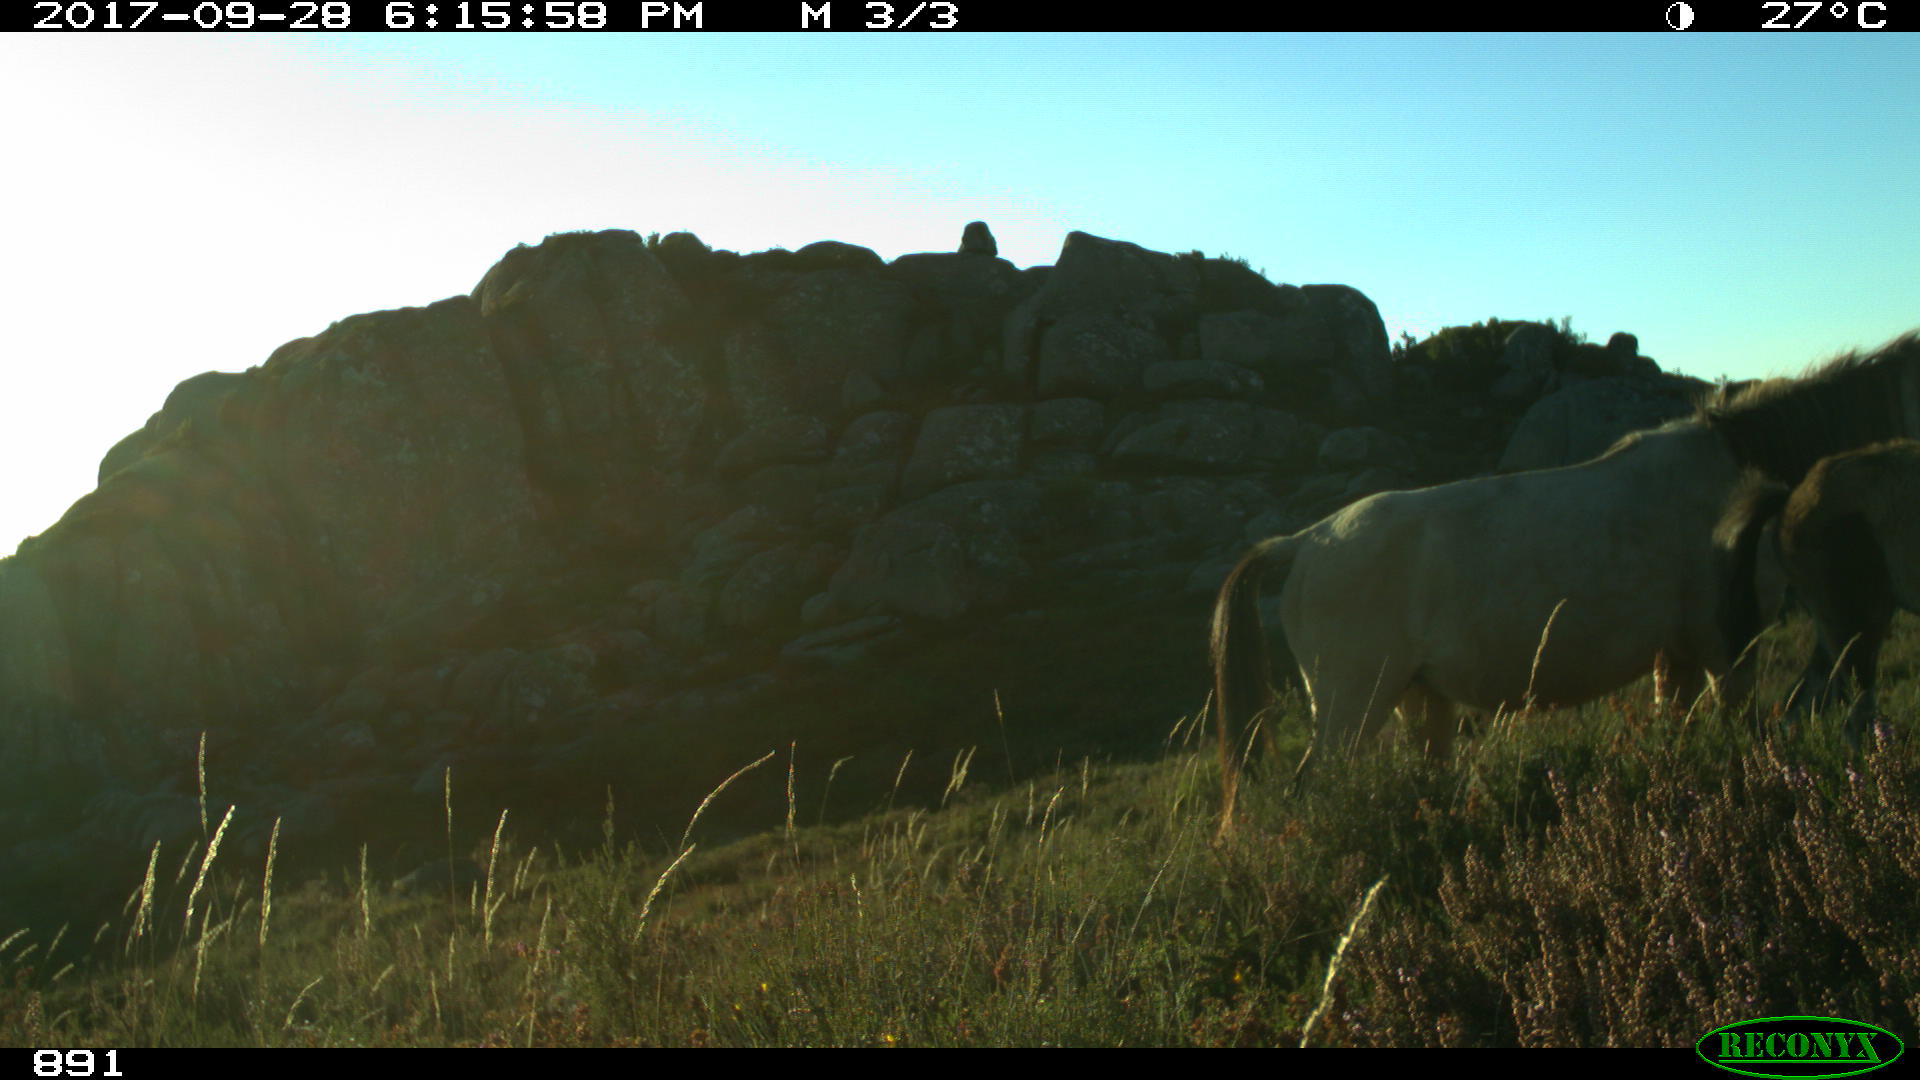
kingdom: Animalia
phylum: Chordata
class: Mammalia
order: Perissodactyla
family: Equidae
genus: Equus
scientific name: Equus caballus
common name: Horse
